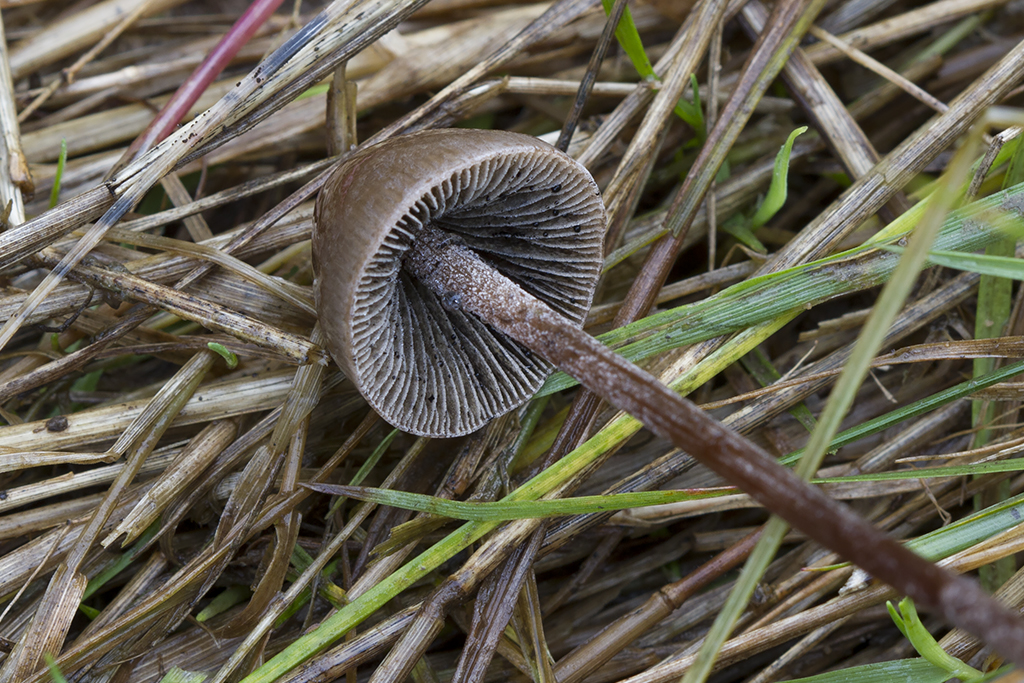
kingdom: Fungi
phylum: Basidiomycota
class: Agaricomycetes
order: Agaricales
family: Bolbitiaceae
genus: Panaeolus
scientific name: Panaeolus acuminatus
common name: høj glanshat
